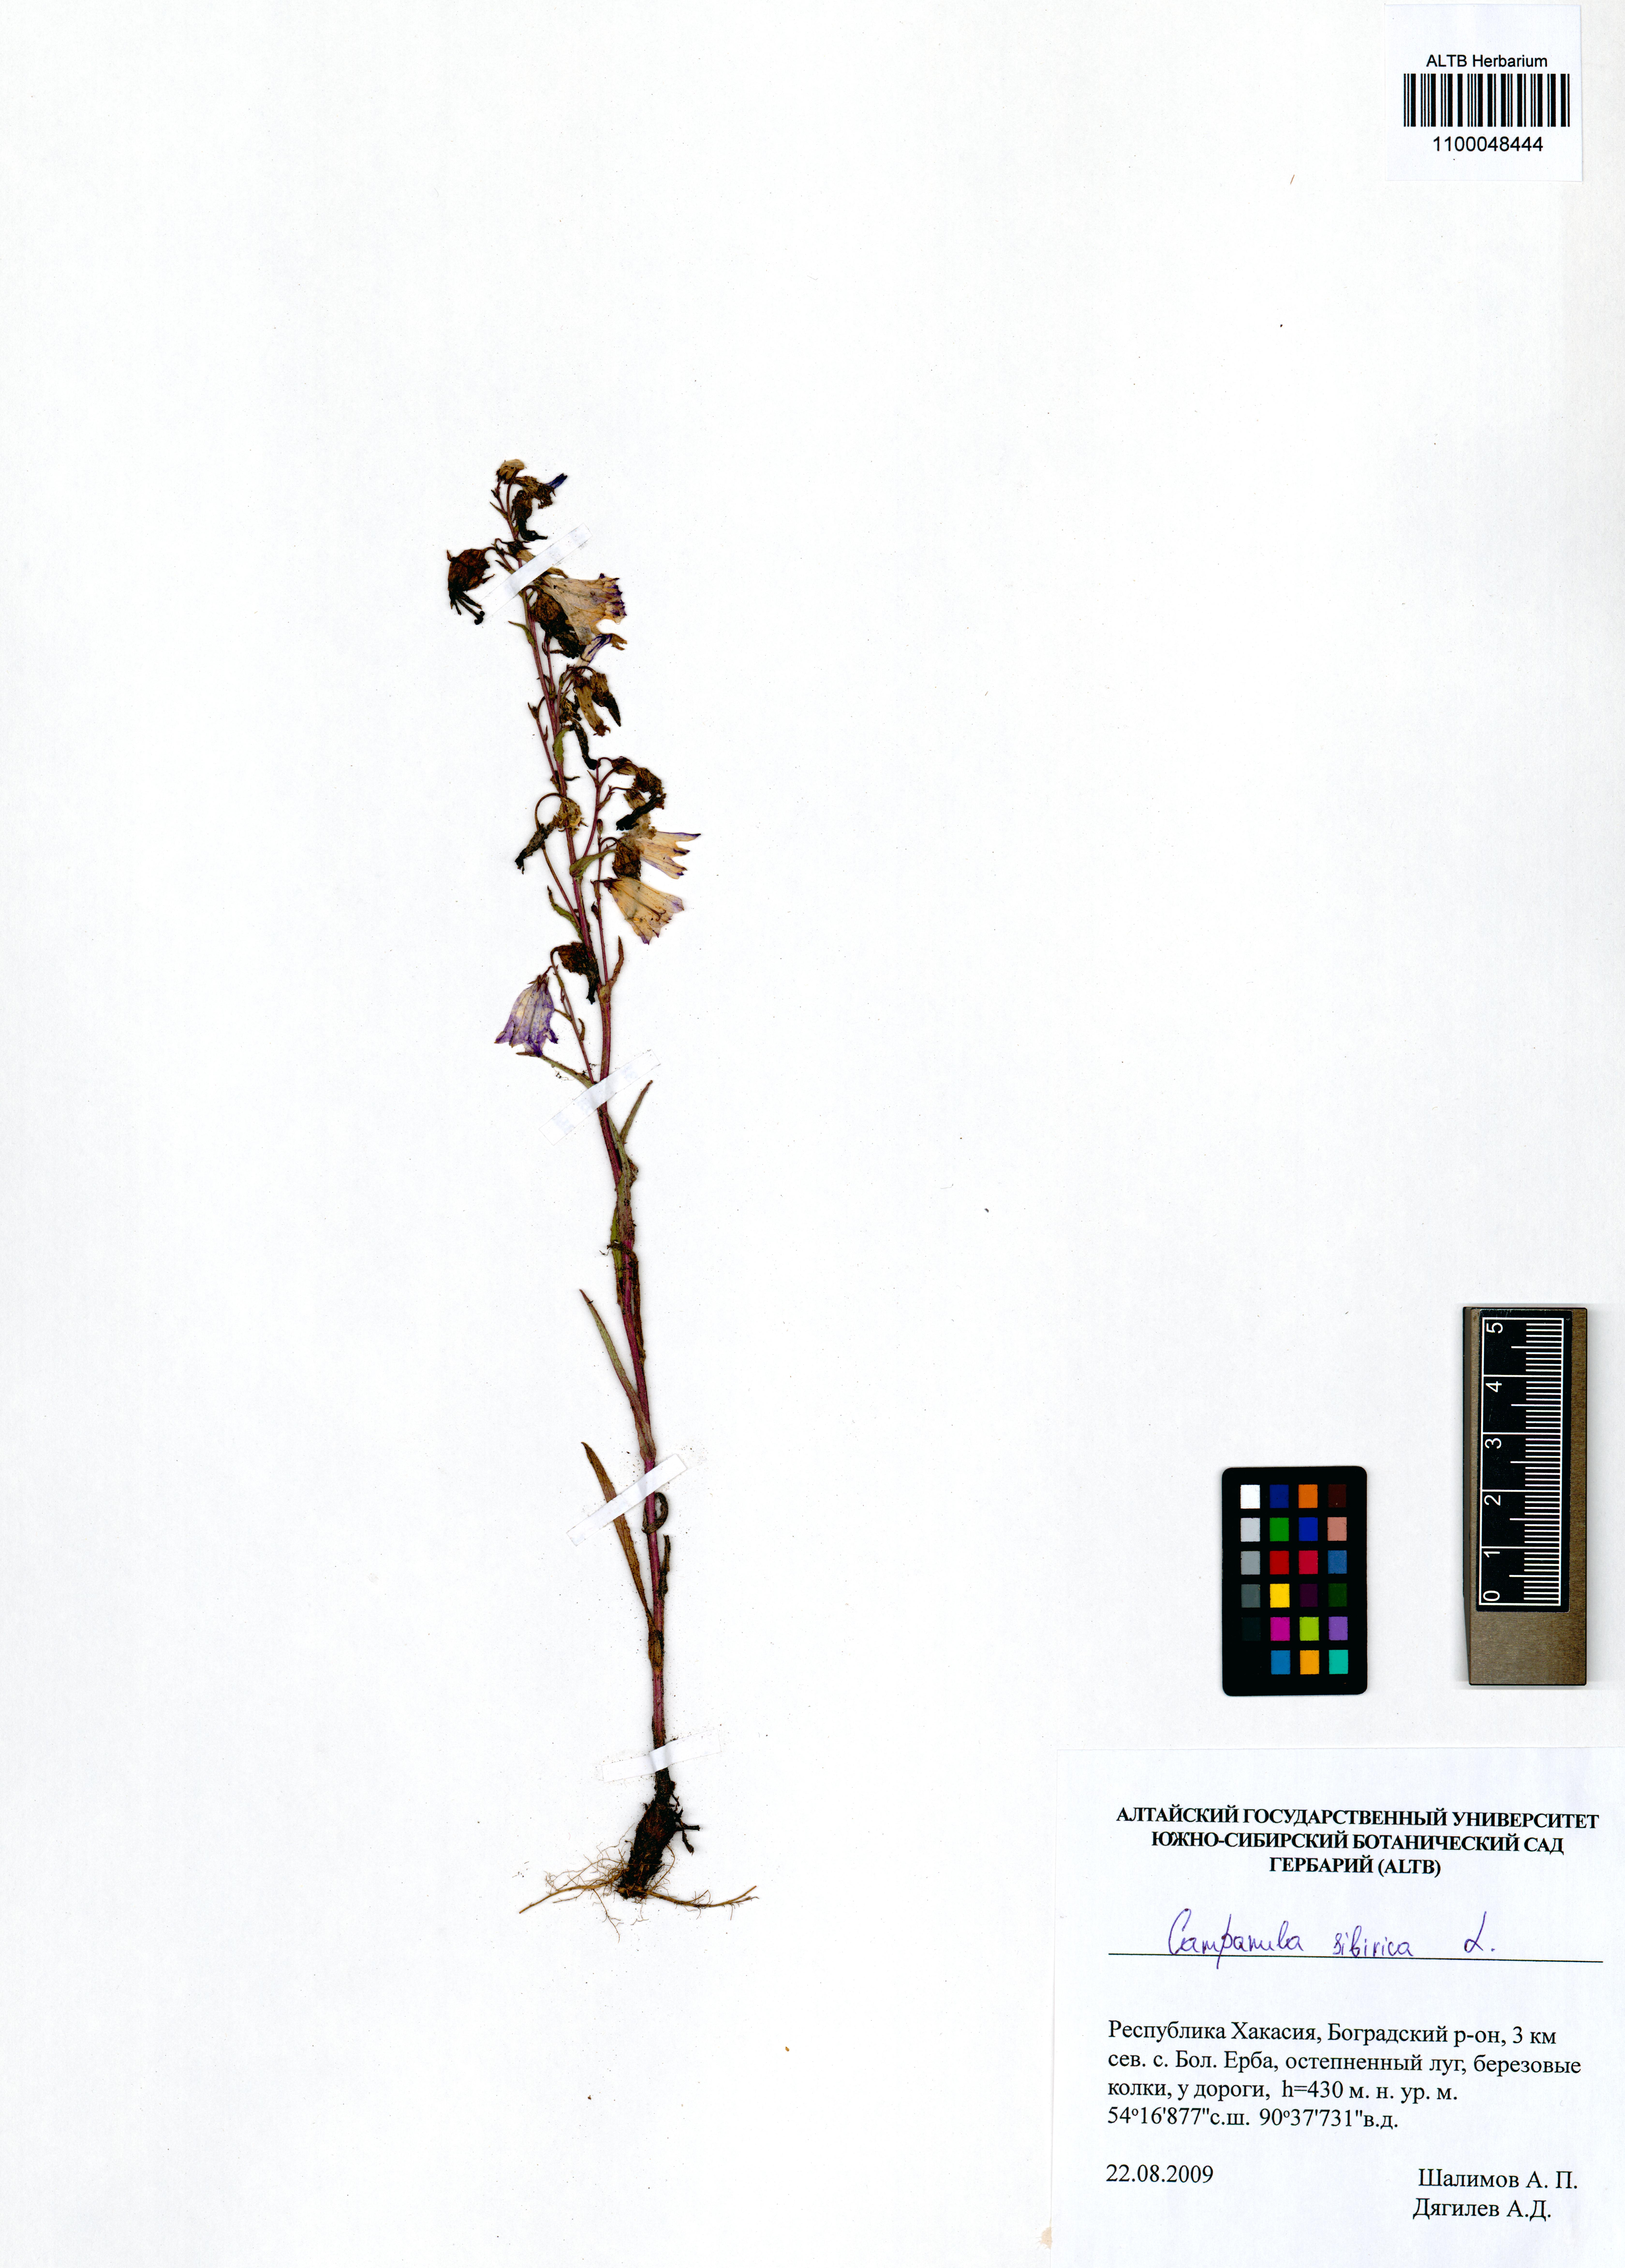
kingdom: Plantae
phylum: Tracheophyta
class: Magnoliopsida
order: Asterales
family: Campanulaceae
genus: Campanula
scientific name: Campanula sibirica
